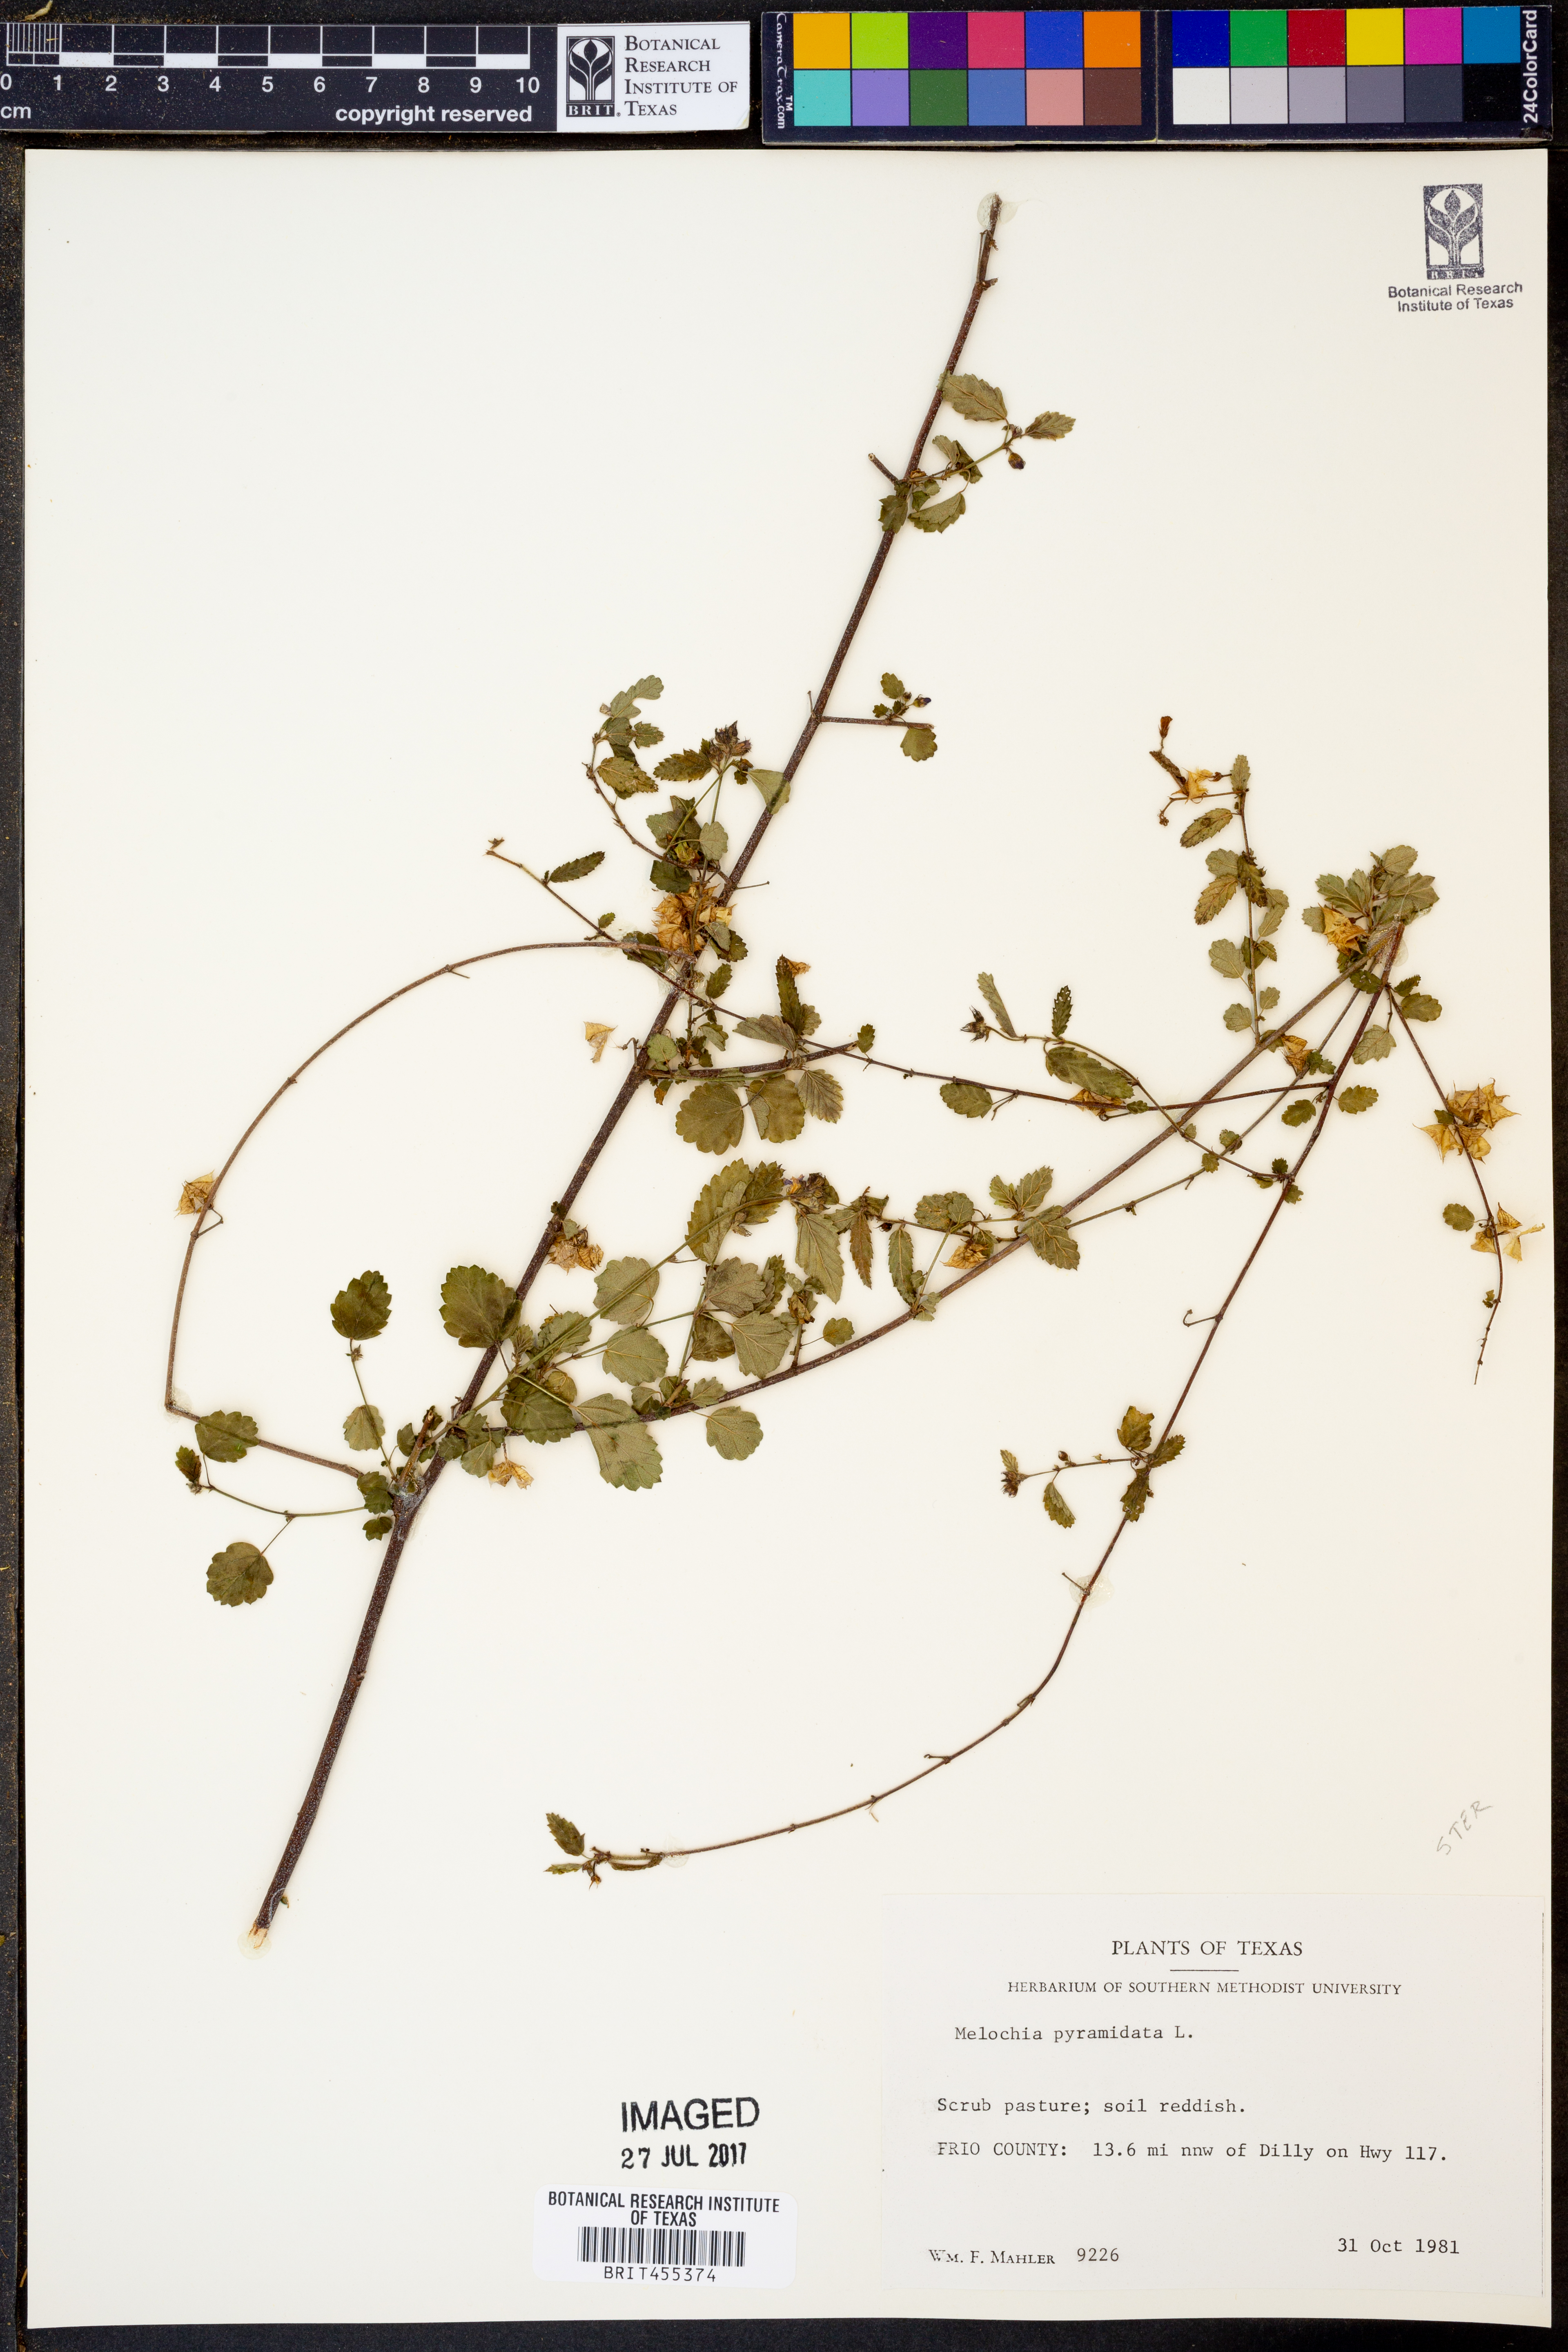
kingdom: Plantae
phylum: Tracheophyta
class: Magnoliopsida
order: Malvales
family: Malvaceae
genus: Melochia
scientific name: Melochia pyramidata
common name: Pyramidflower
